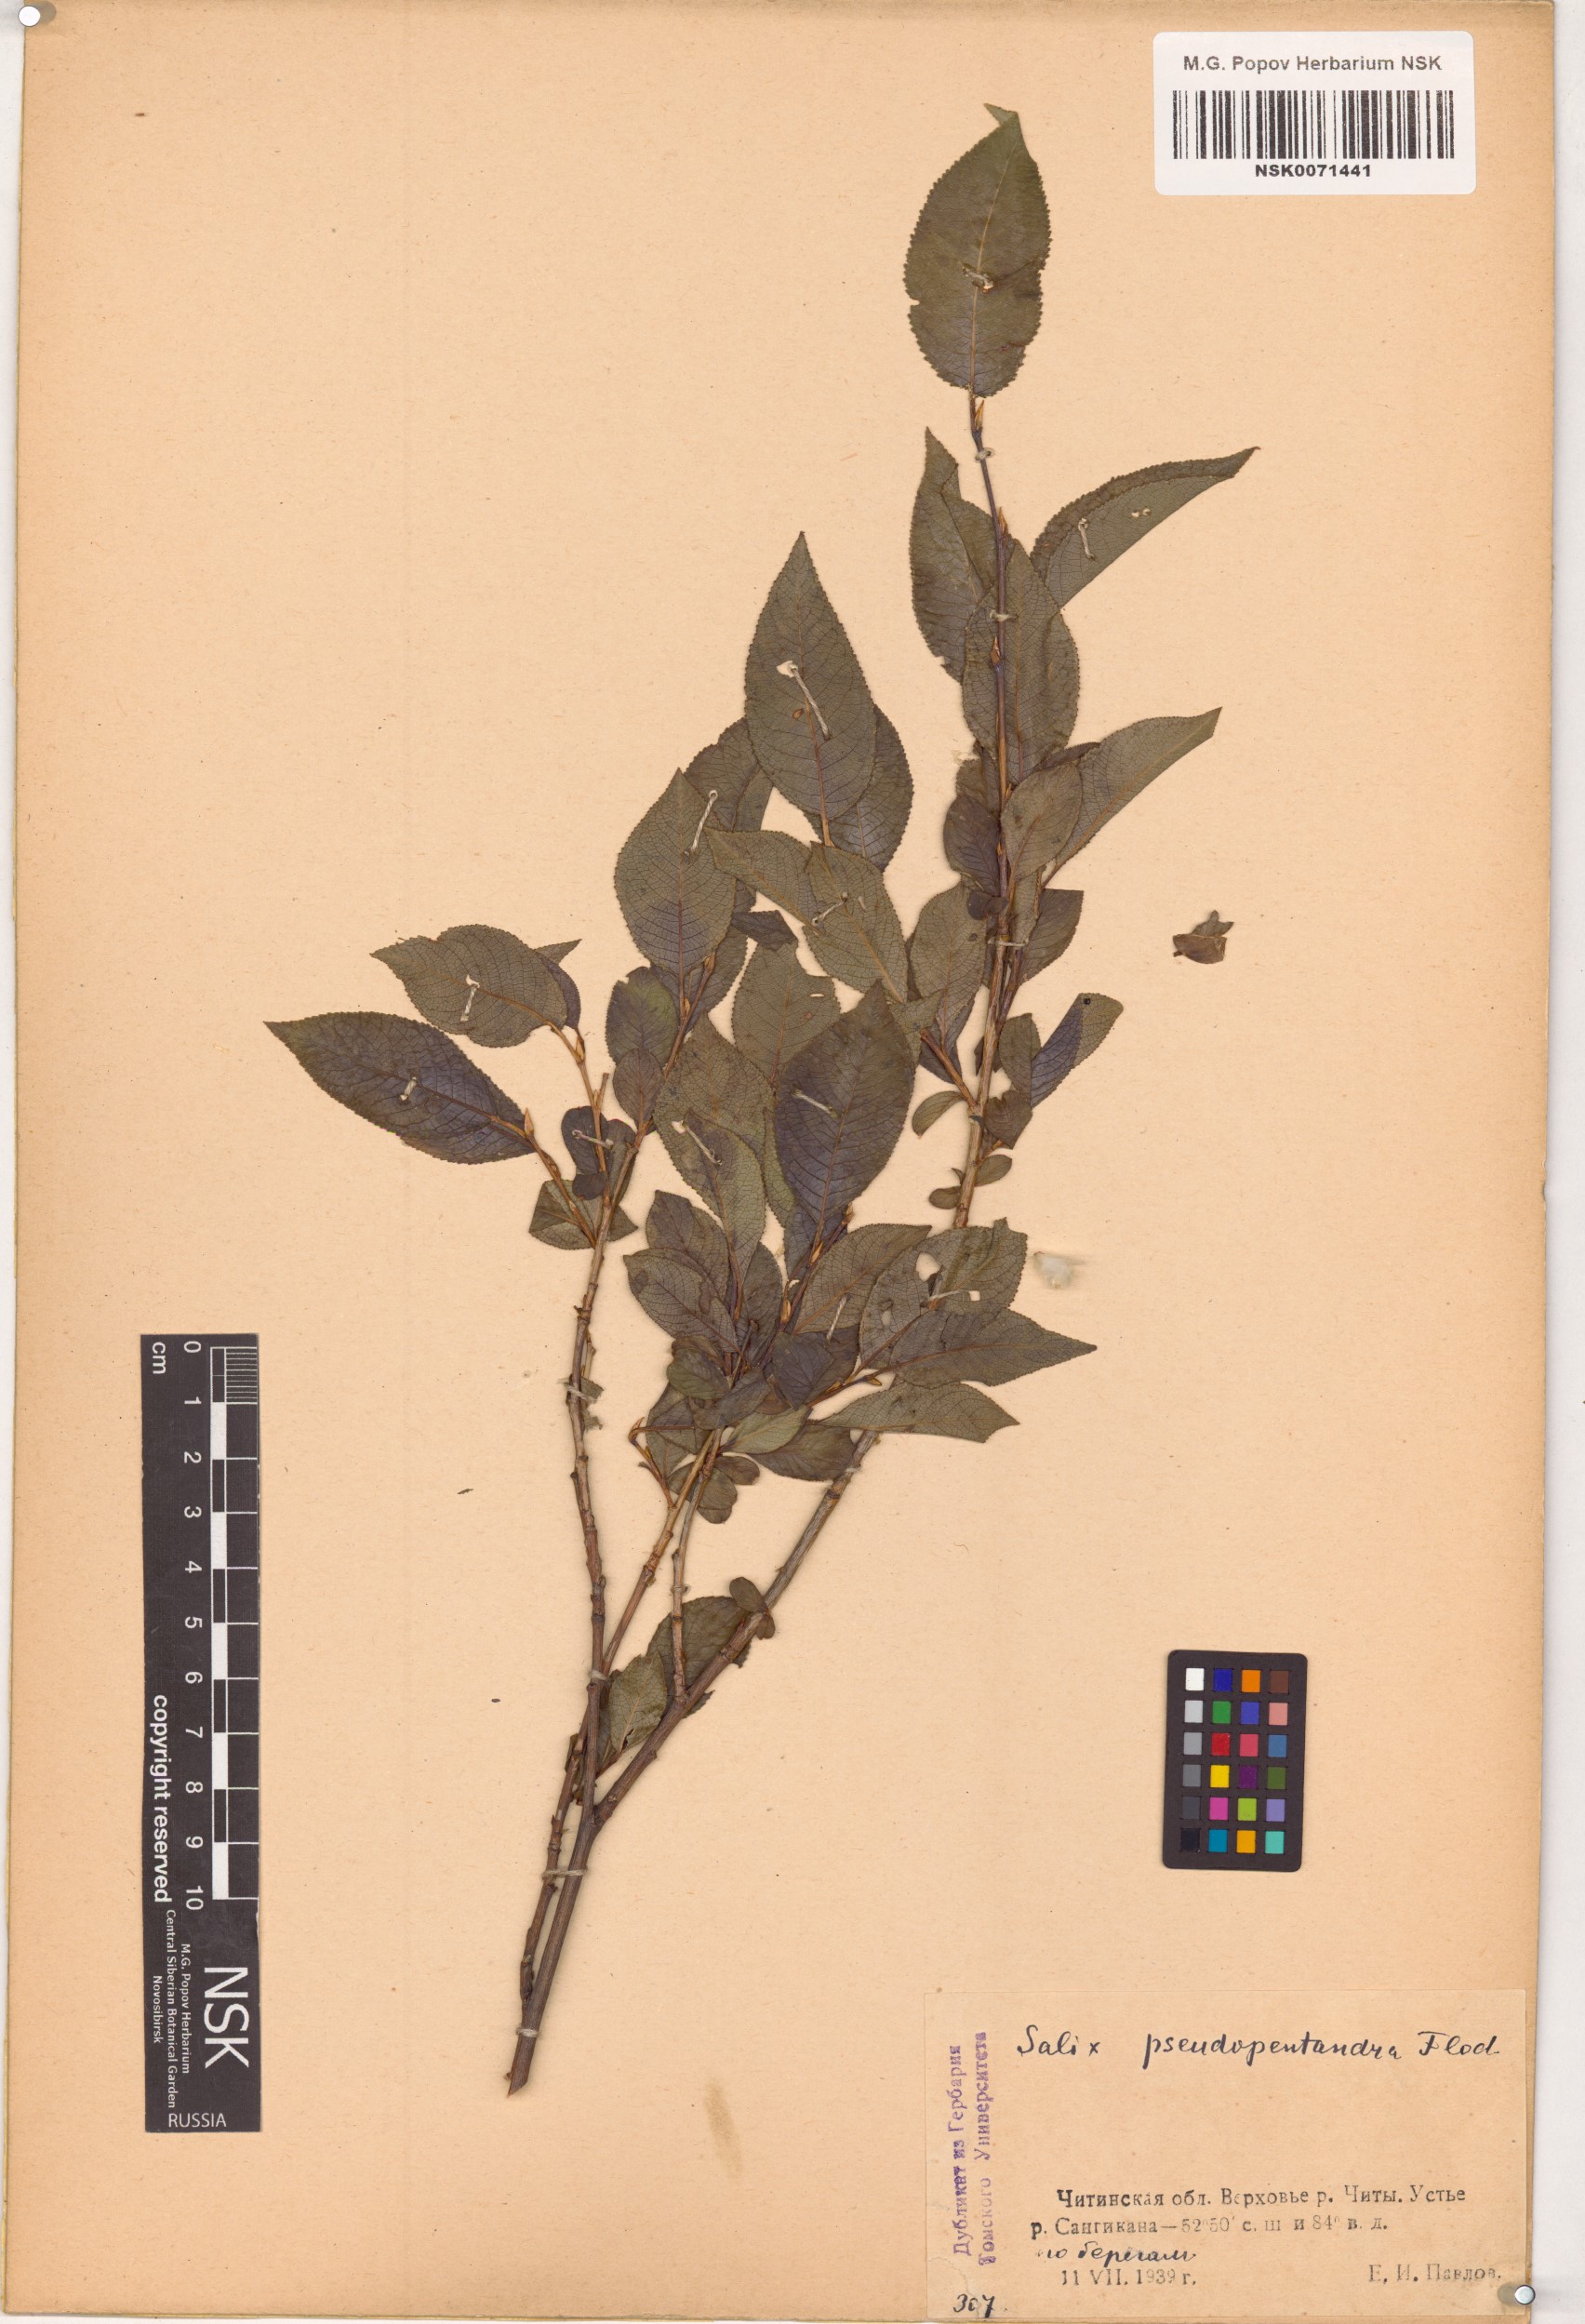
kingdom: Plantae
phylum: Tracheophyta
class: Magnoliopsida
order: Malpighiales
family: Salicaceae
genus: Salix
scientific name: Salix pseudopentandra
